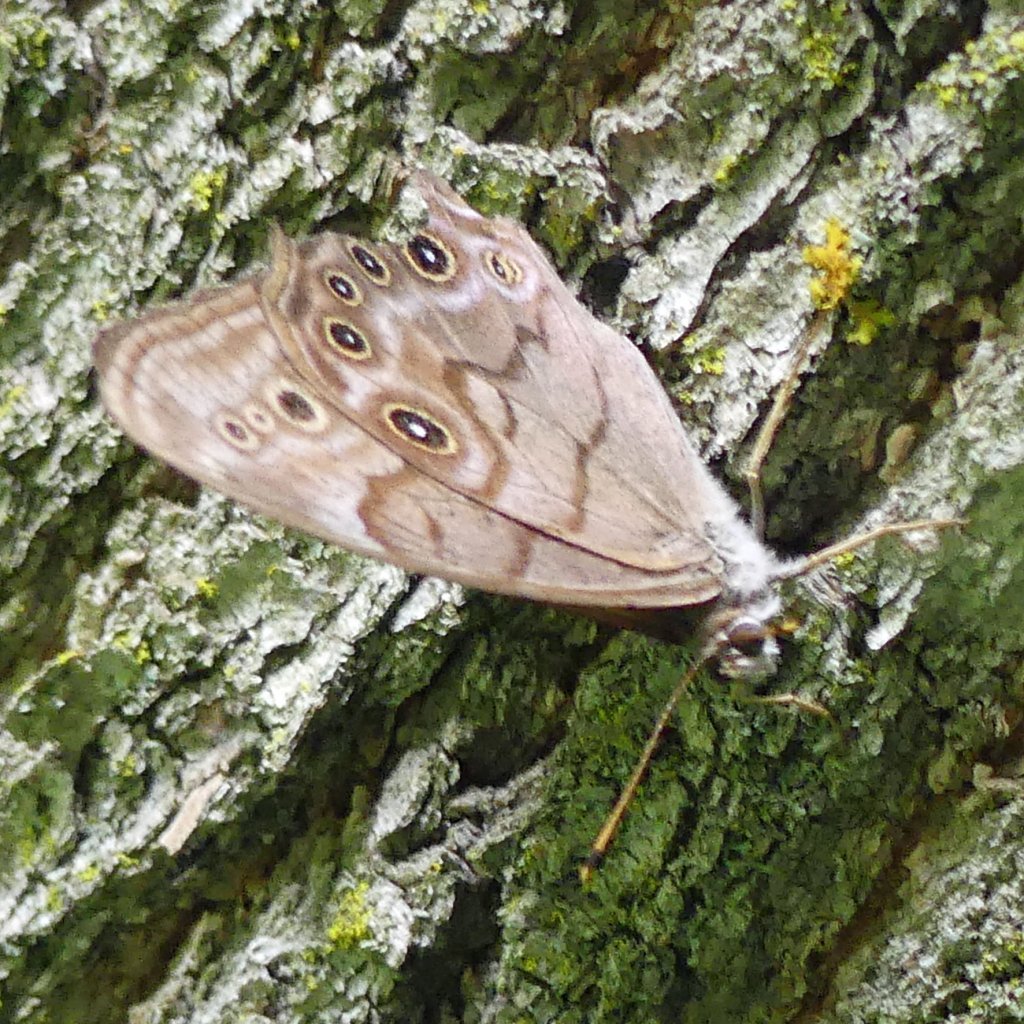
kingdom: Animalia
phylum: Arthropoda
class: Insecta
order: Lepidoptera
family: Nymphalidae
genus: Lethe
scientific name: Lethe anthedon
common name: Northern Pearly-Eye
